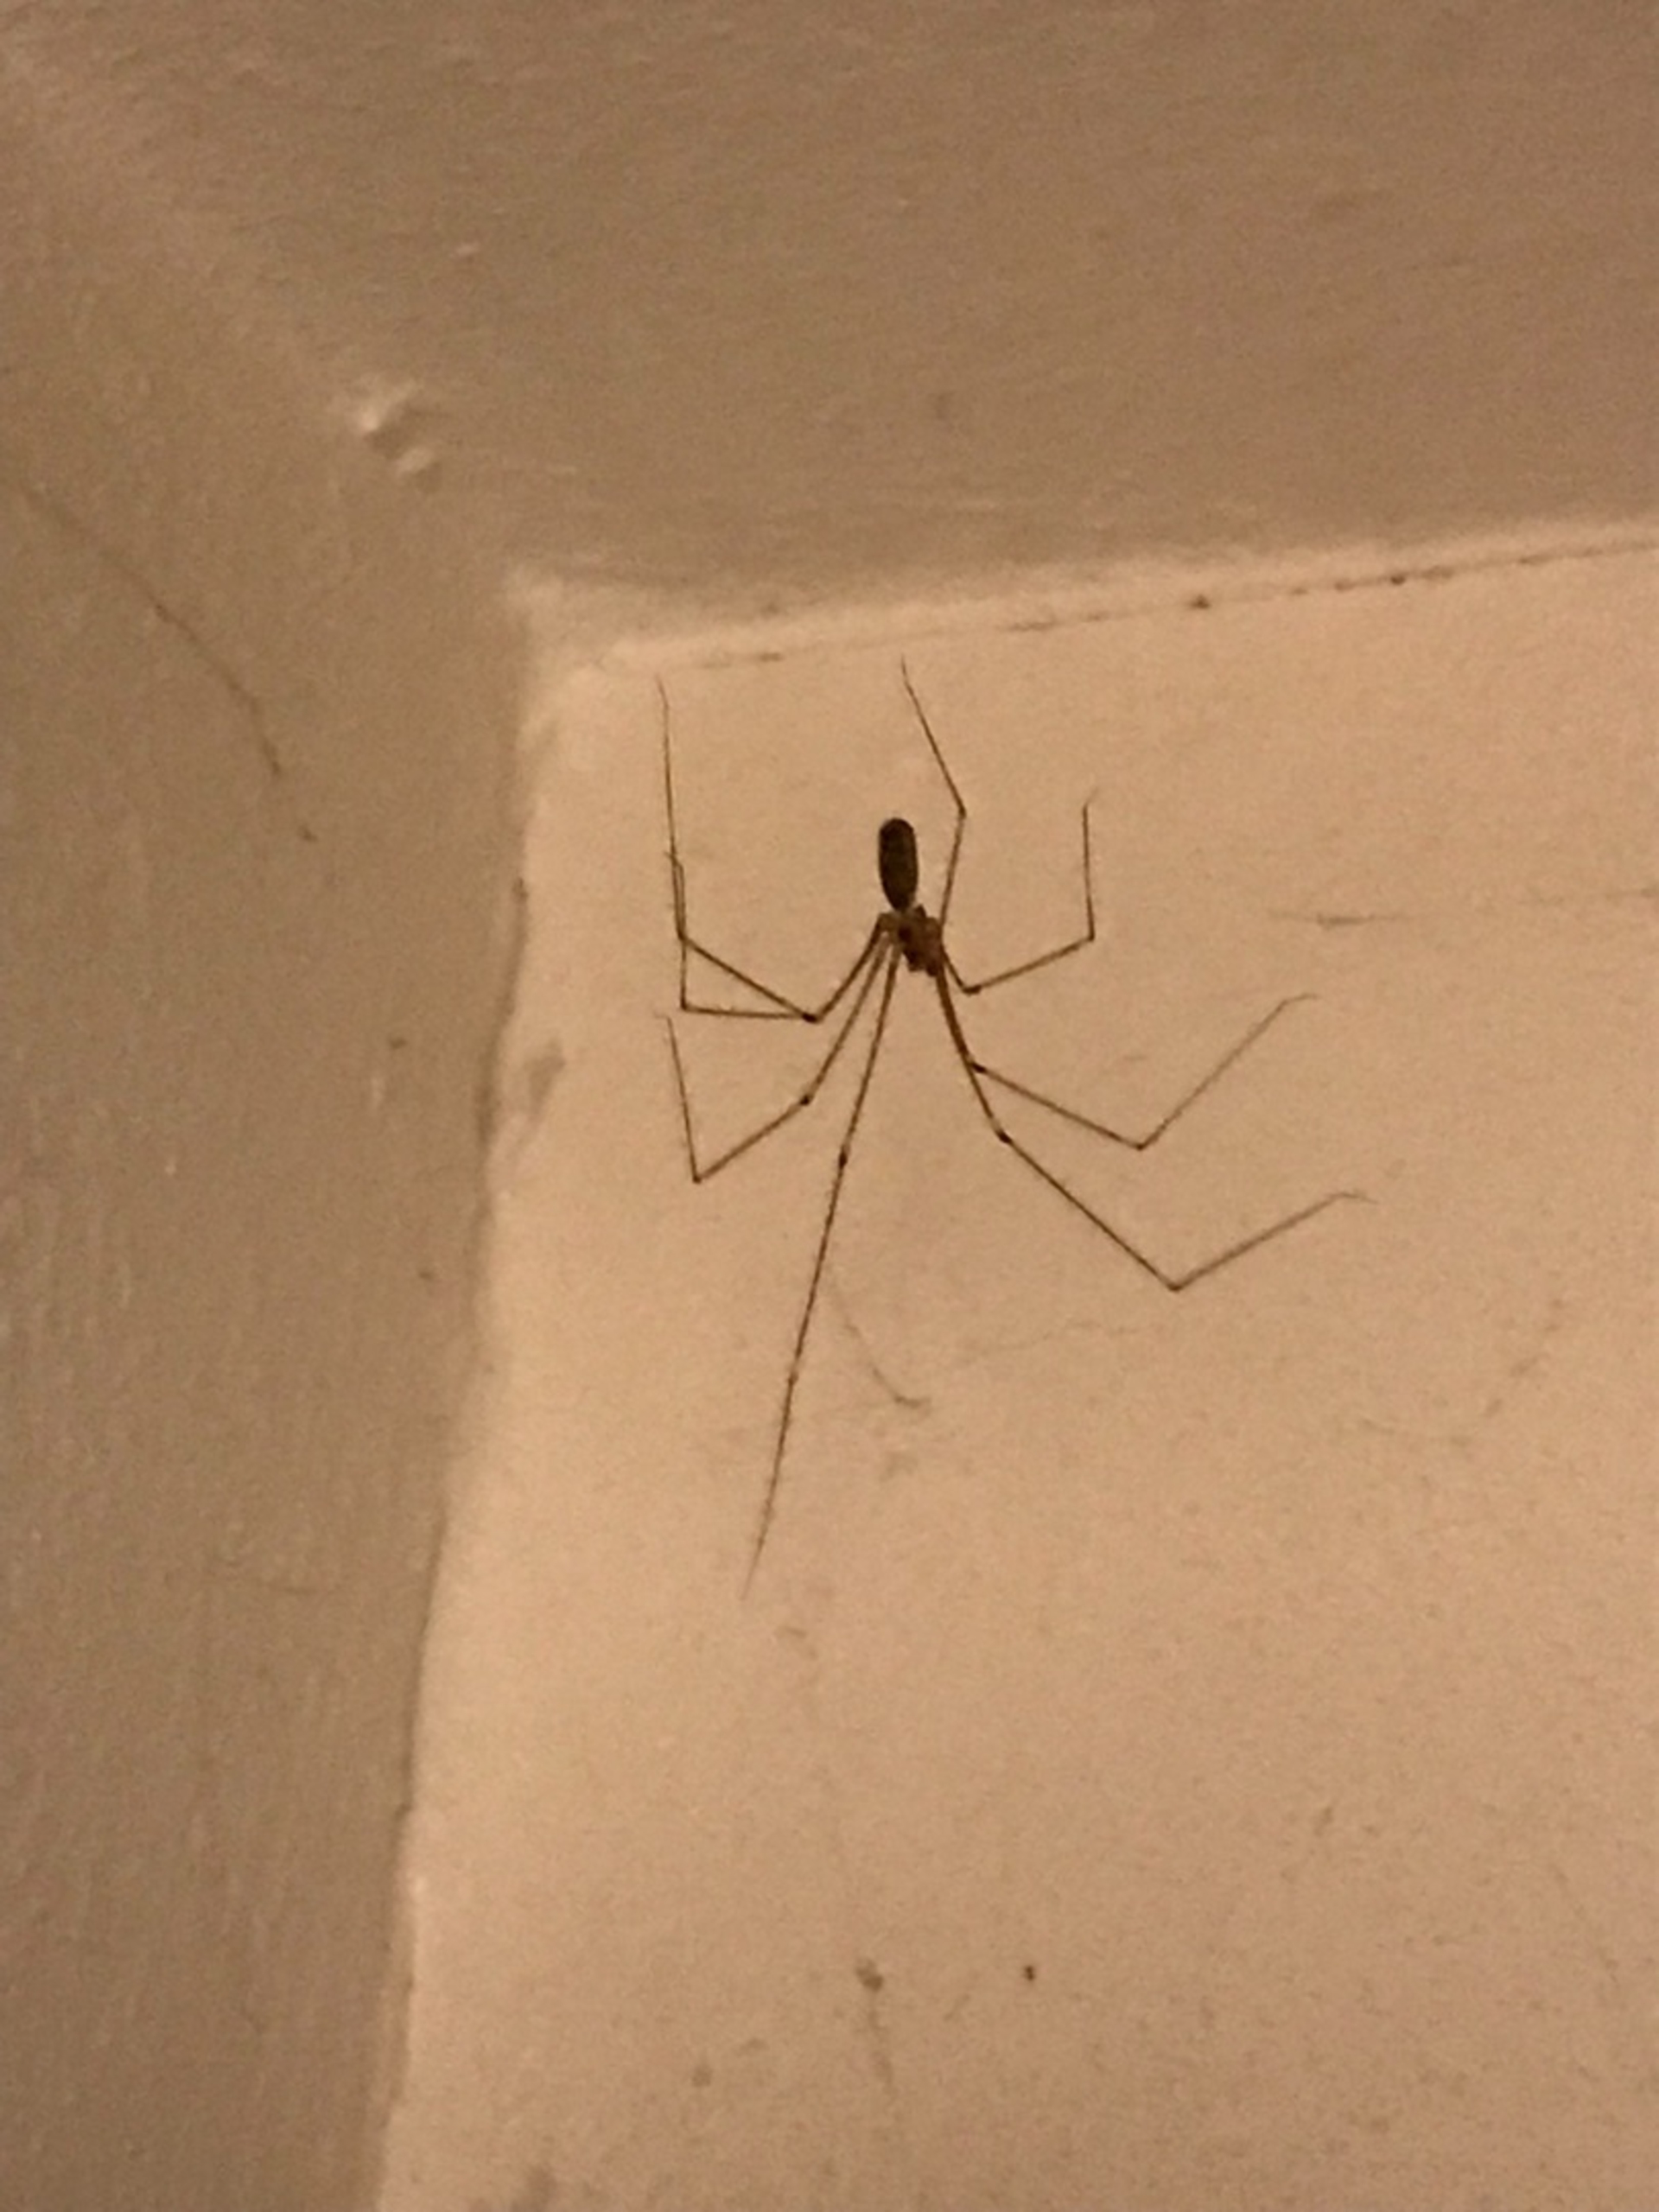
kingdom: Animalia
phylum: Arthropoda
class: Arachnida
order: Araneae
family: Pholcidae
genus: Pholcus
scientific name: Pholcus phalangioides
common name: Mejeredderkop
